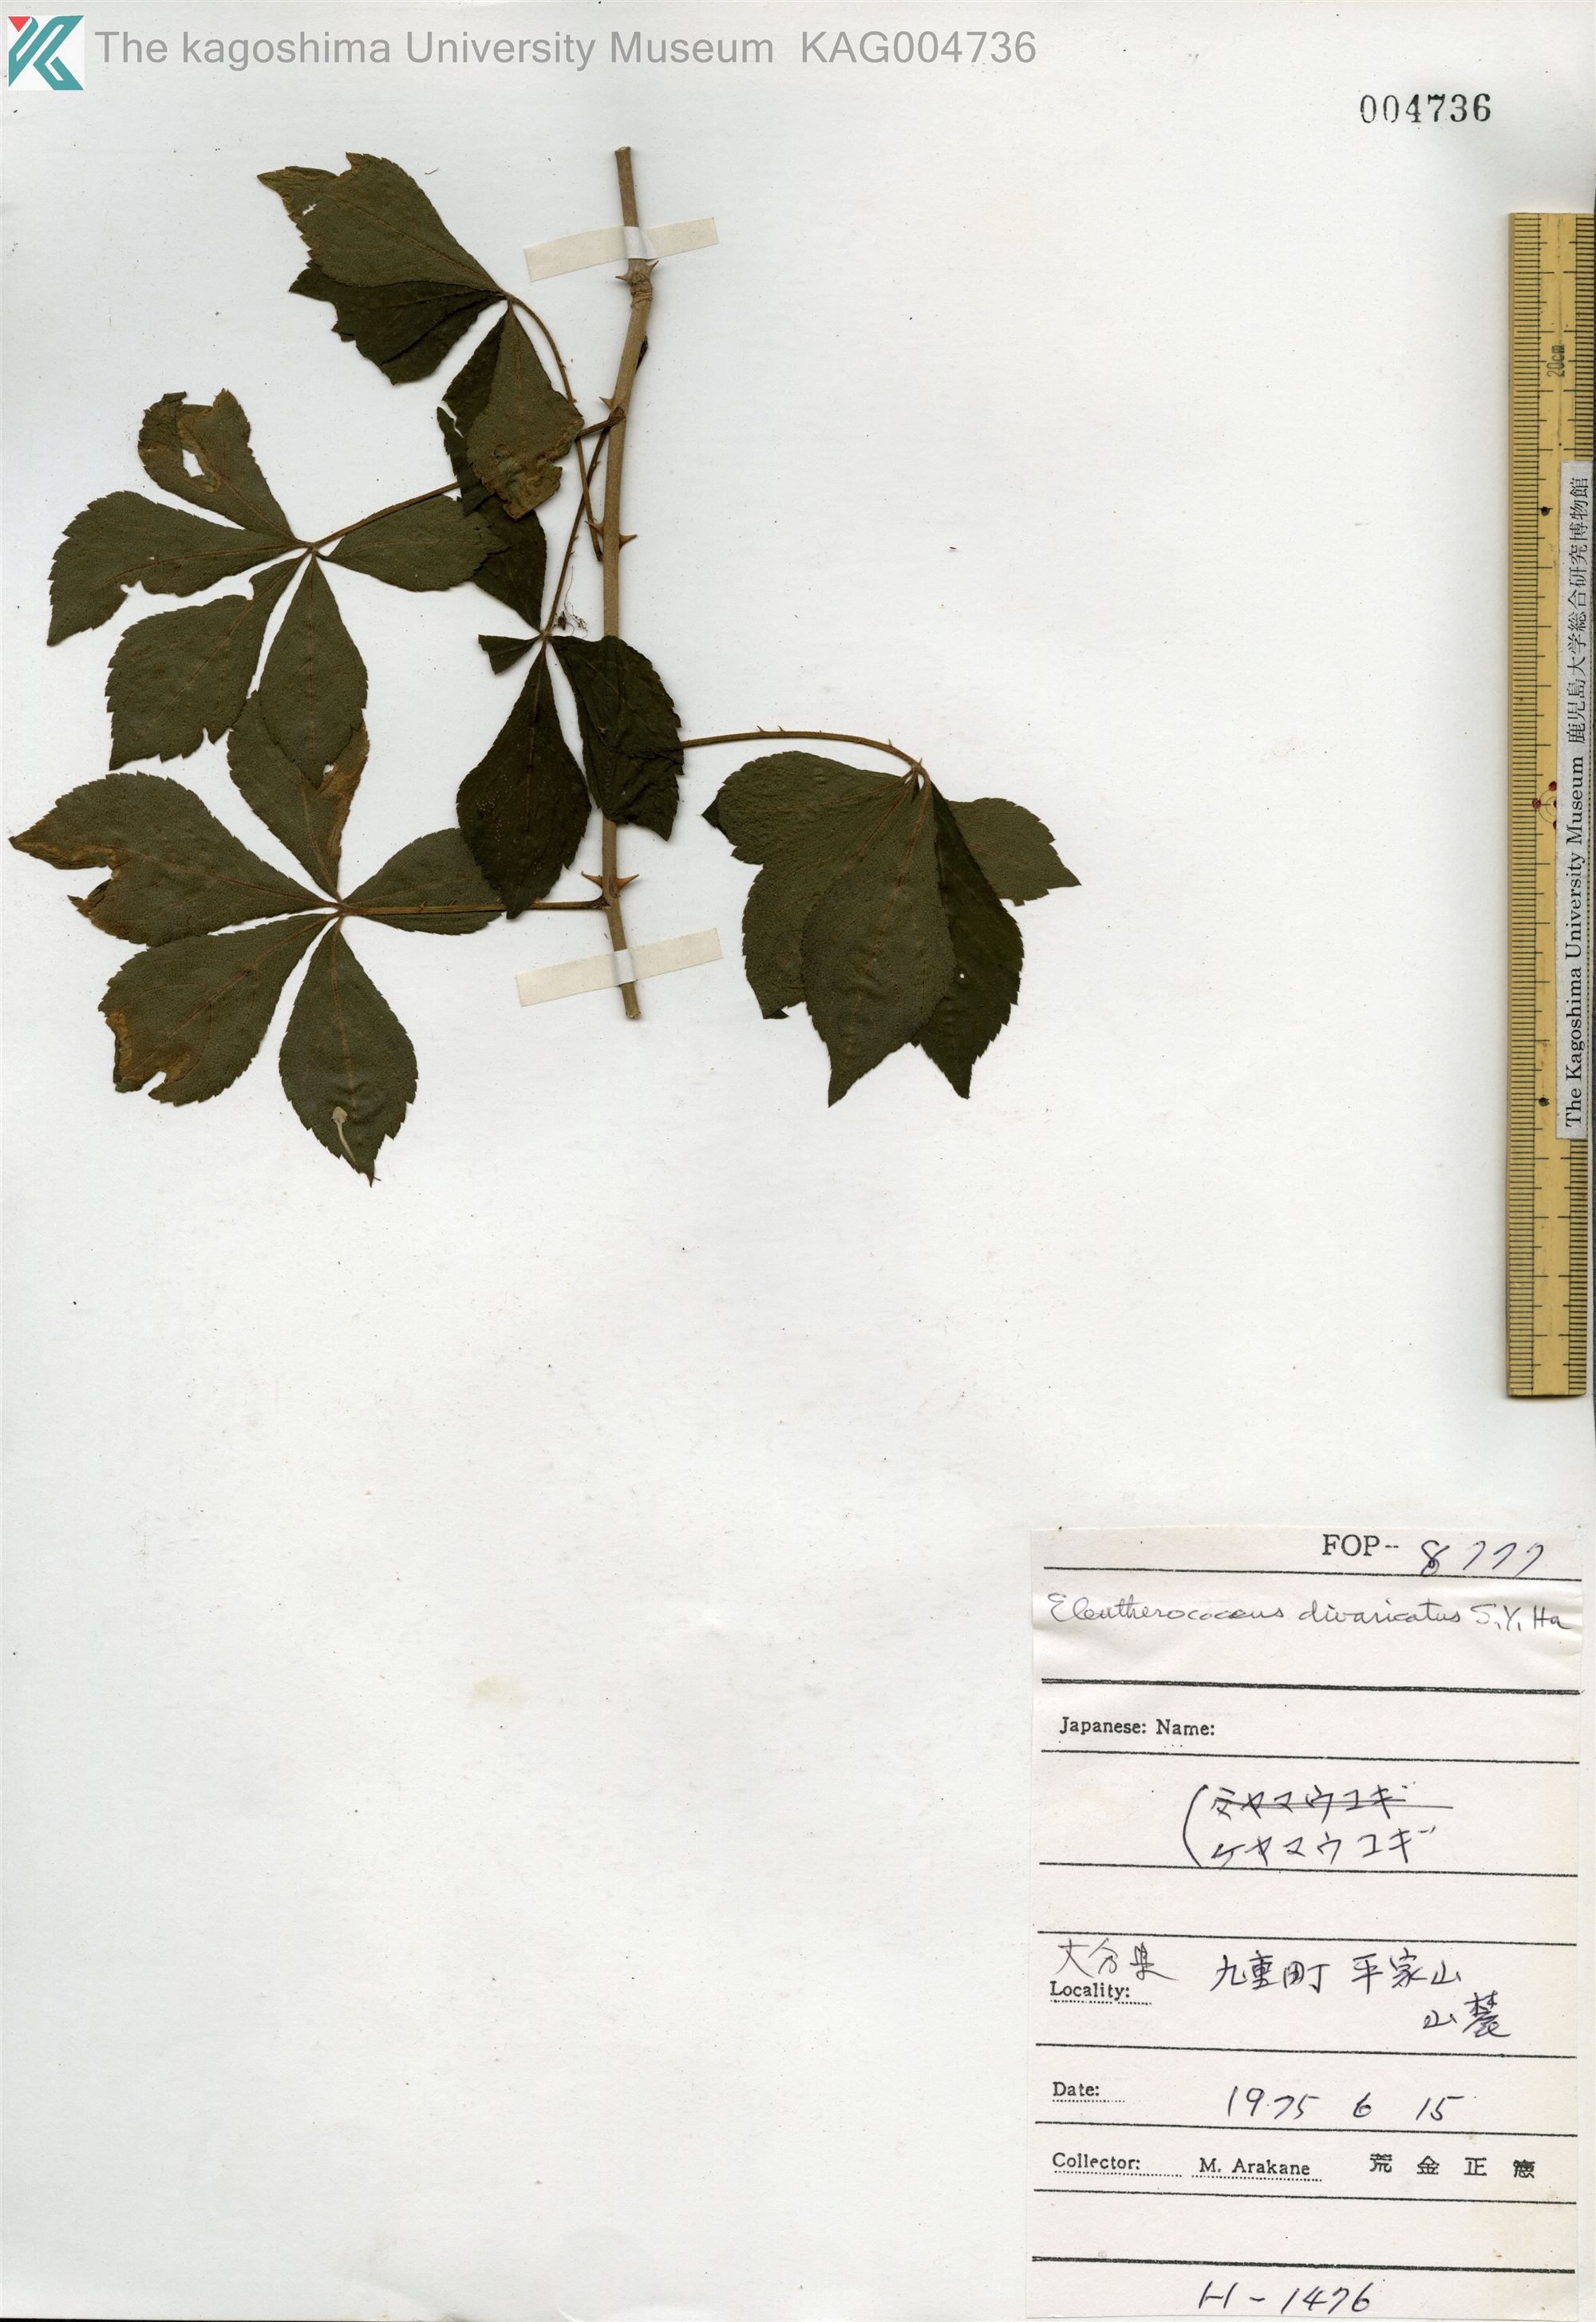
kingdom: Plantae
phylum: Tracheophyta
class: Magnoliopsida
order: Apiales
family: Araliaceae
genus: Eleutherococcus
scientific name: Eleutherococcus divaricatus
